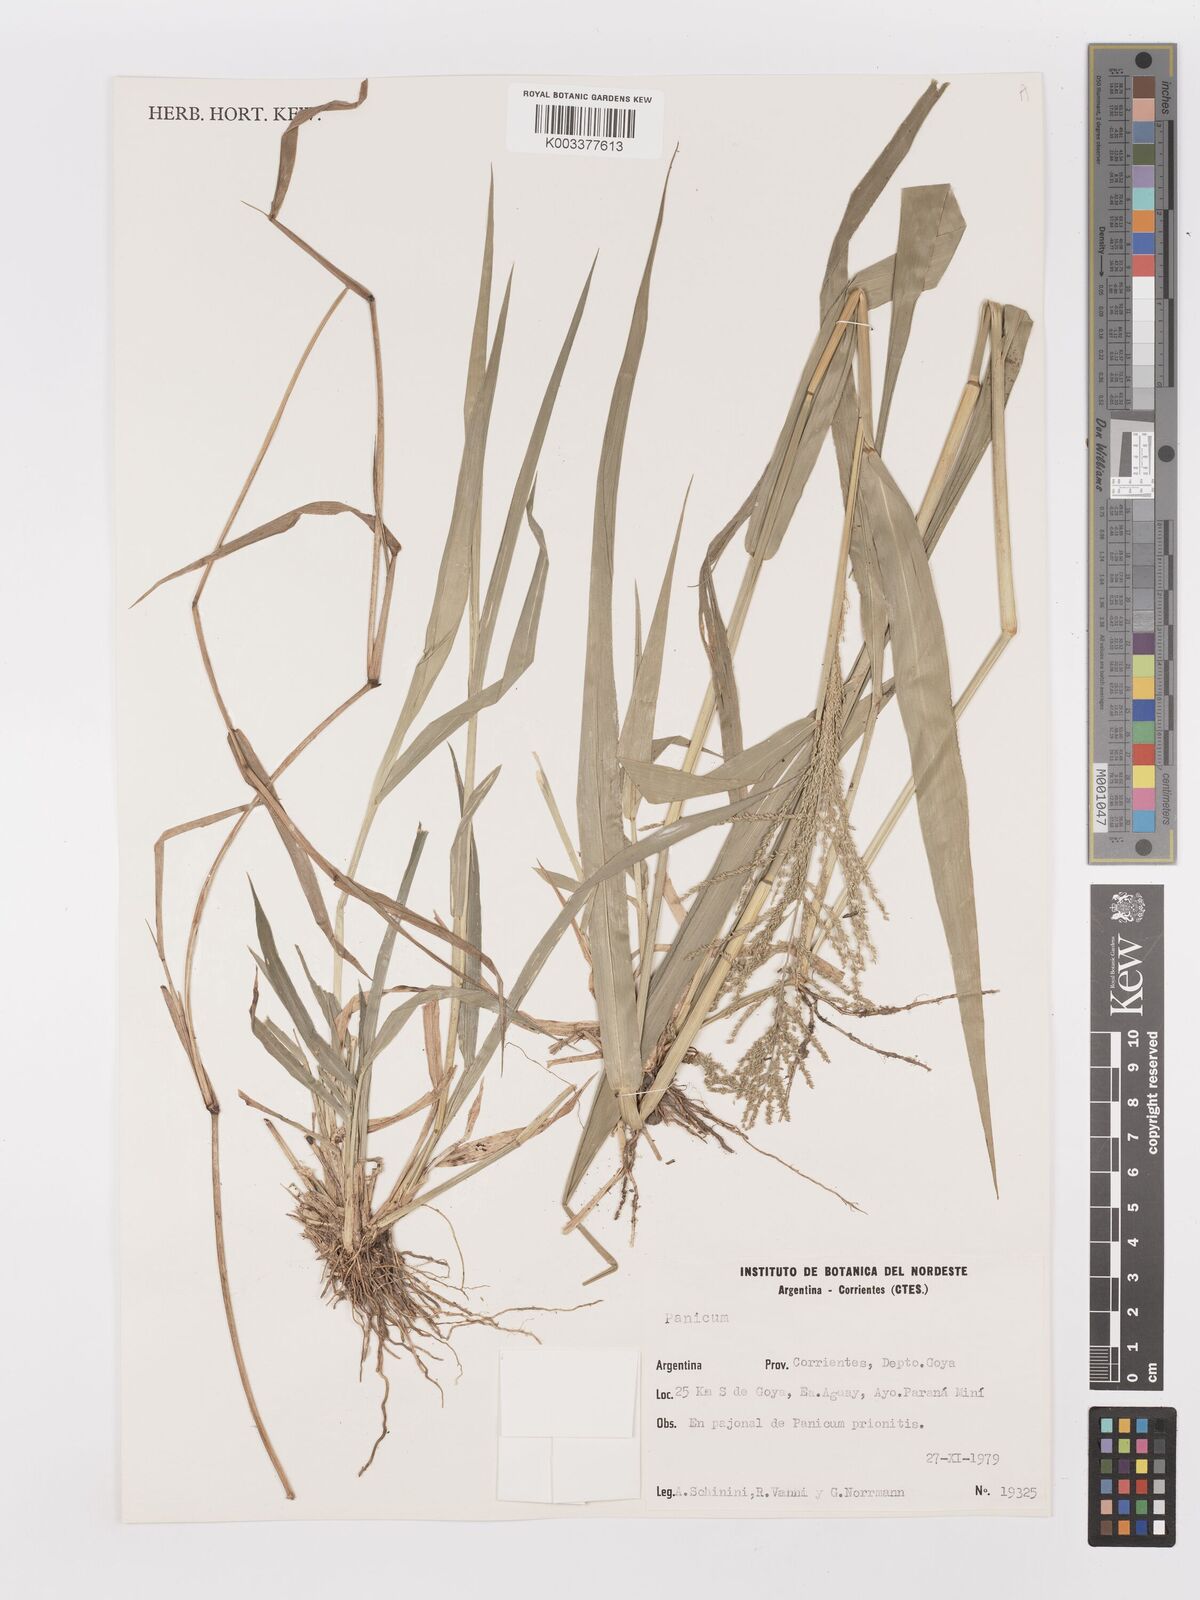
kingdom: Plantae
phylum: Tracheophyta
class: Liliopsida
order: Poales
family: Poaceae
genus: Rugoloa
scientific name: Rugoloa polygonata
